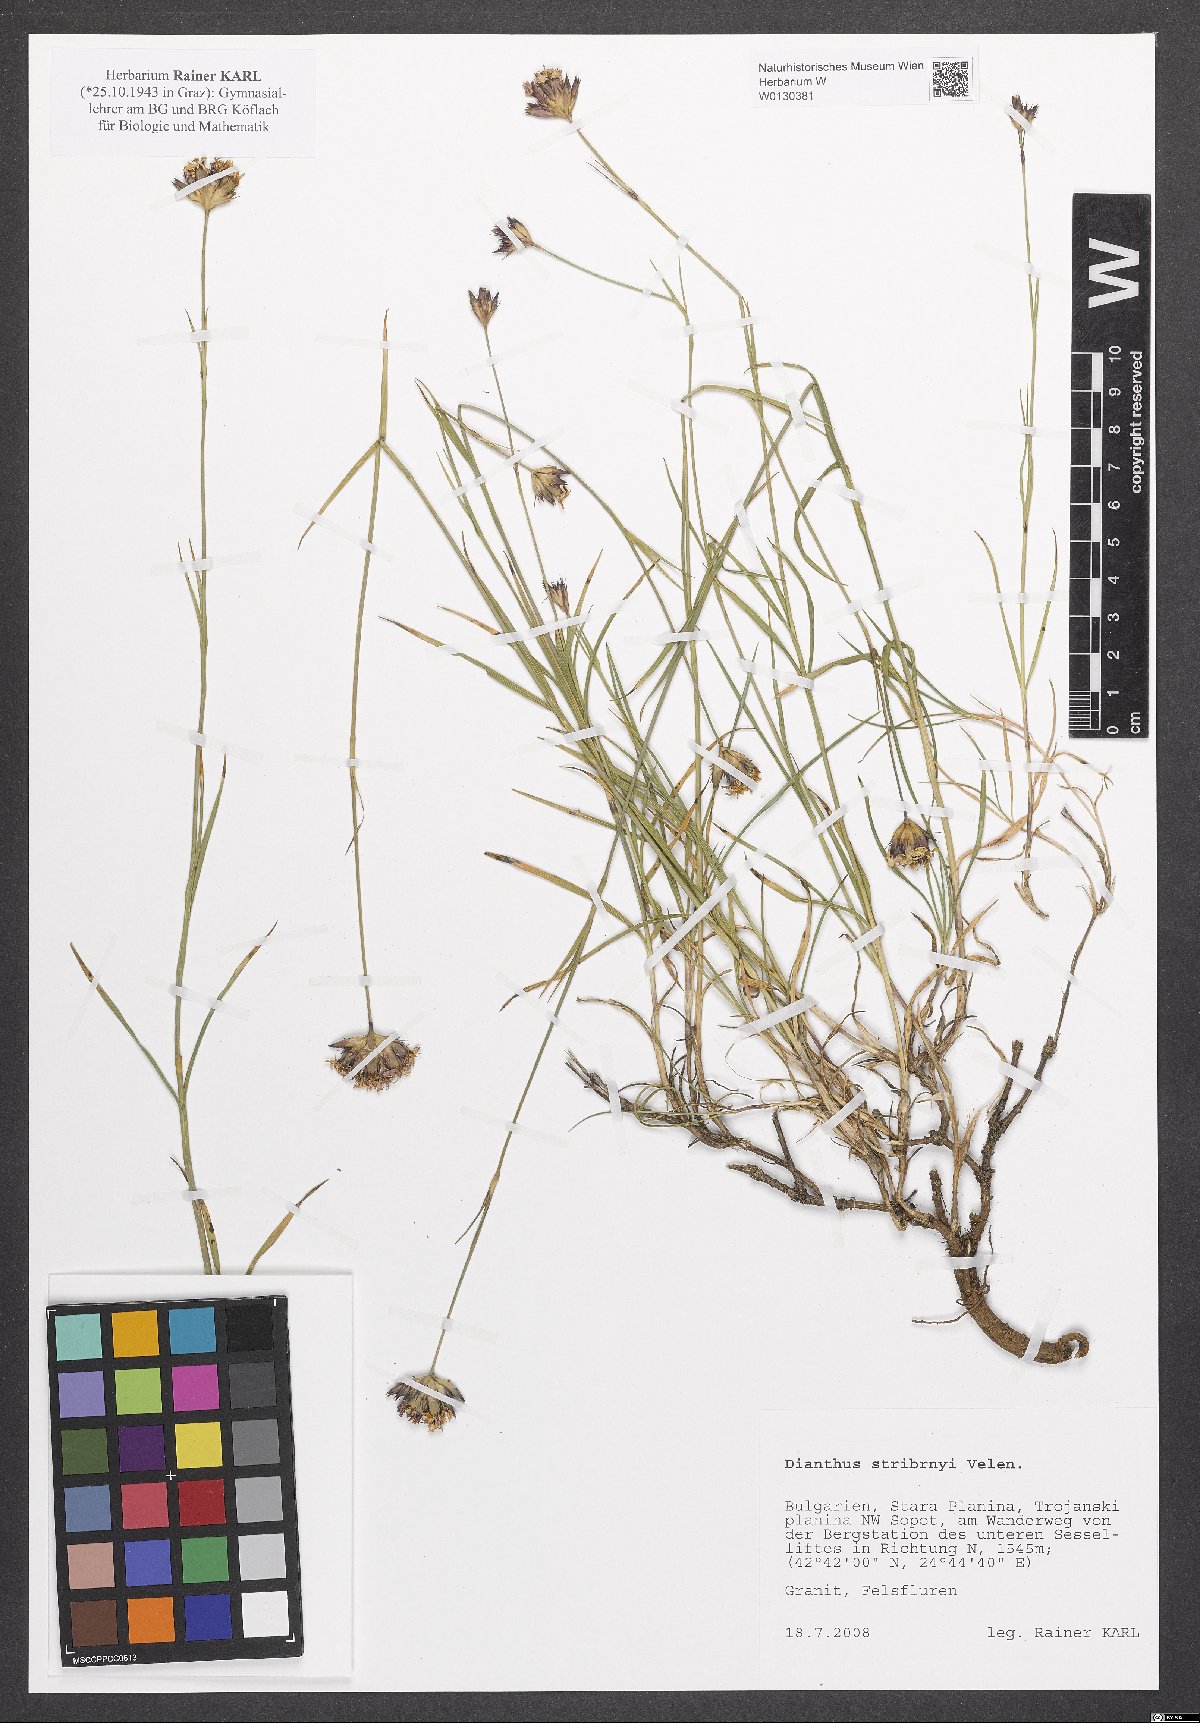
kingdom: Plantae
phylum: Tracheophyta
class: Magnoliopsida
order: Caryophyllales
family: Caryophyllaceae
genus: Dianthus
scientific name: Dianthus stribrnyi
